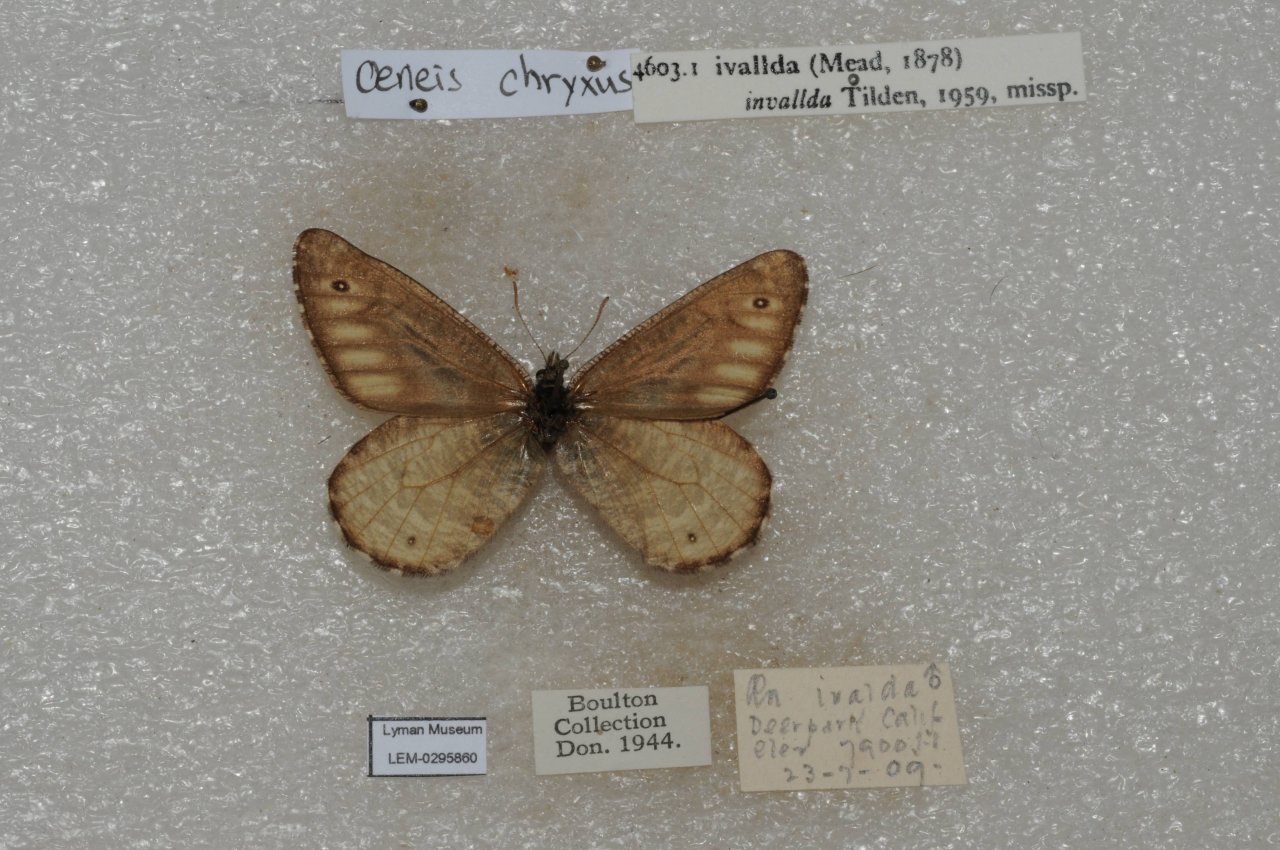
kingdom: Animalia
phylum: Arthropoda
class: Insecta
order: Lepidoptera
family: Nymphalidae
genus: Oeneis
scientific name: Oeneis chryxus
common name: Chryxus Arctic
